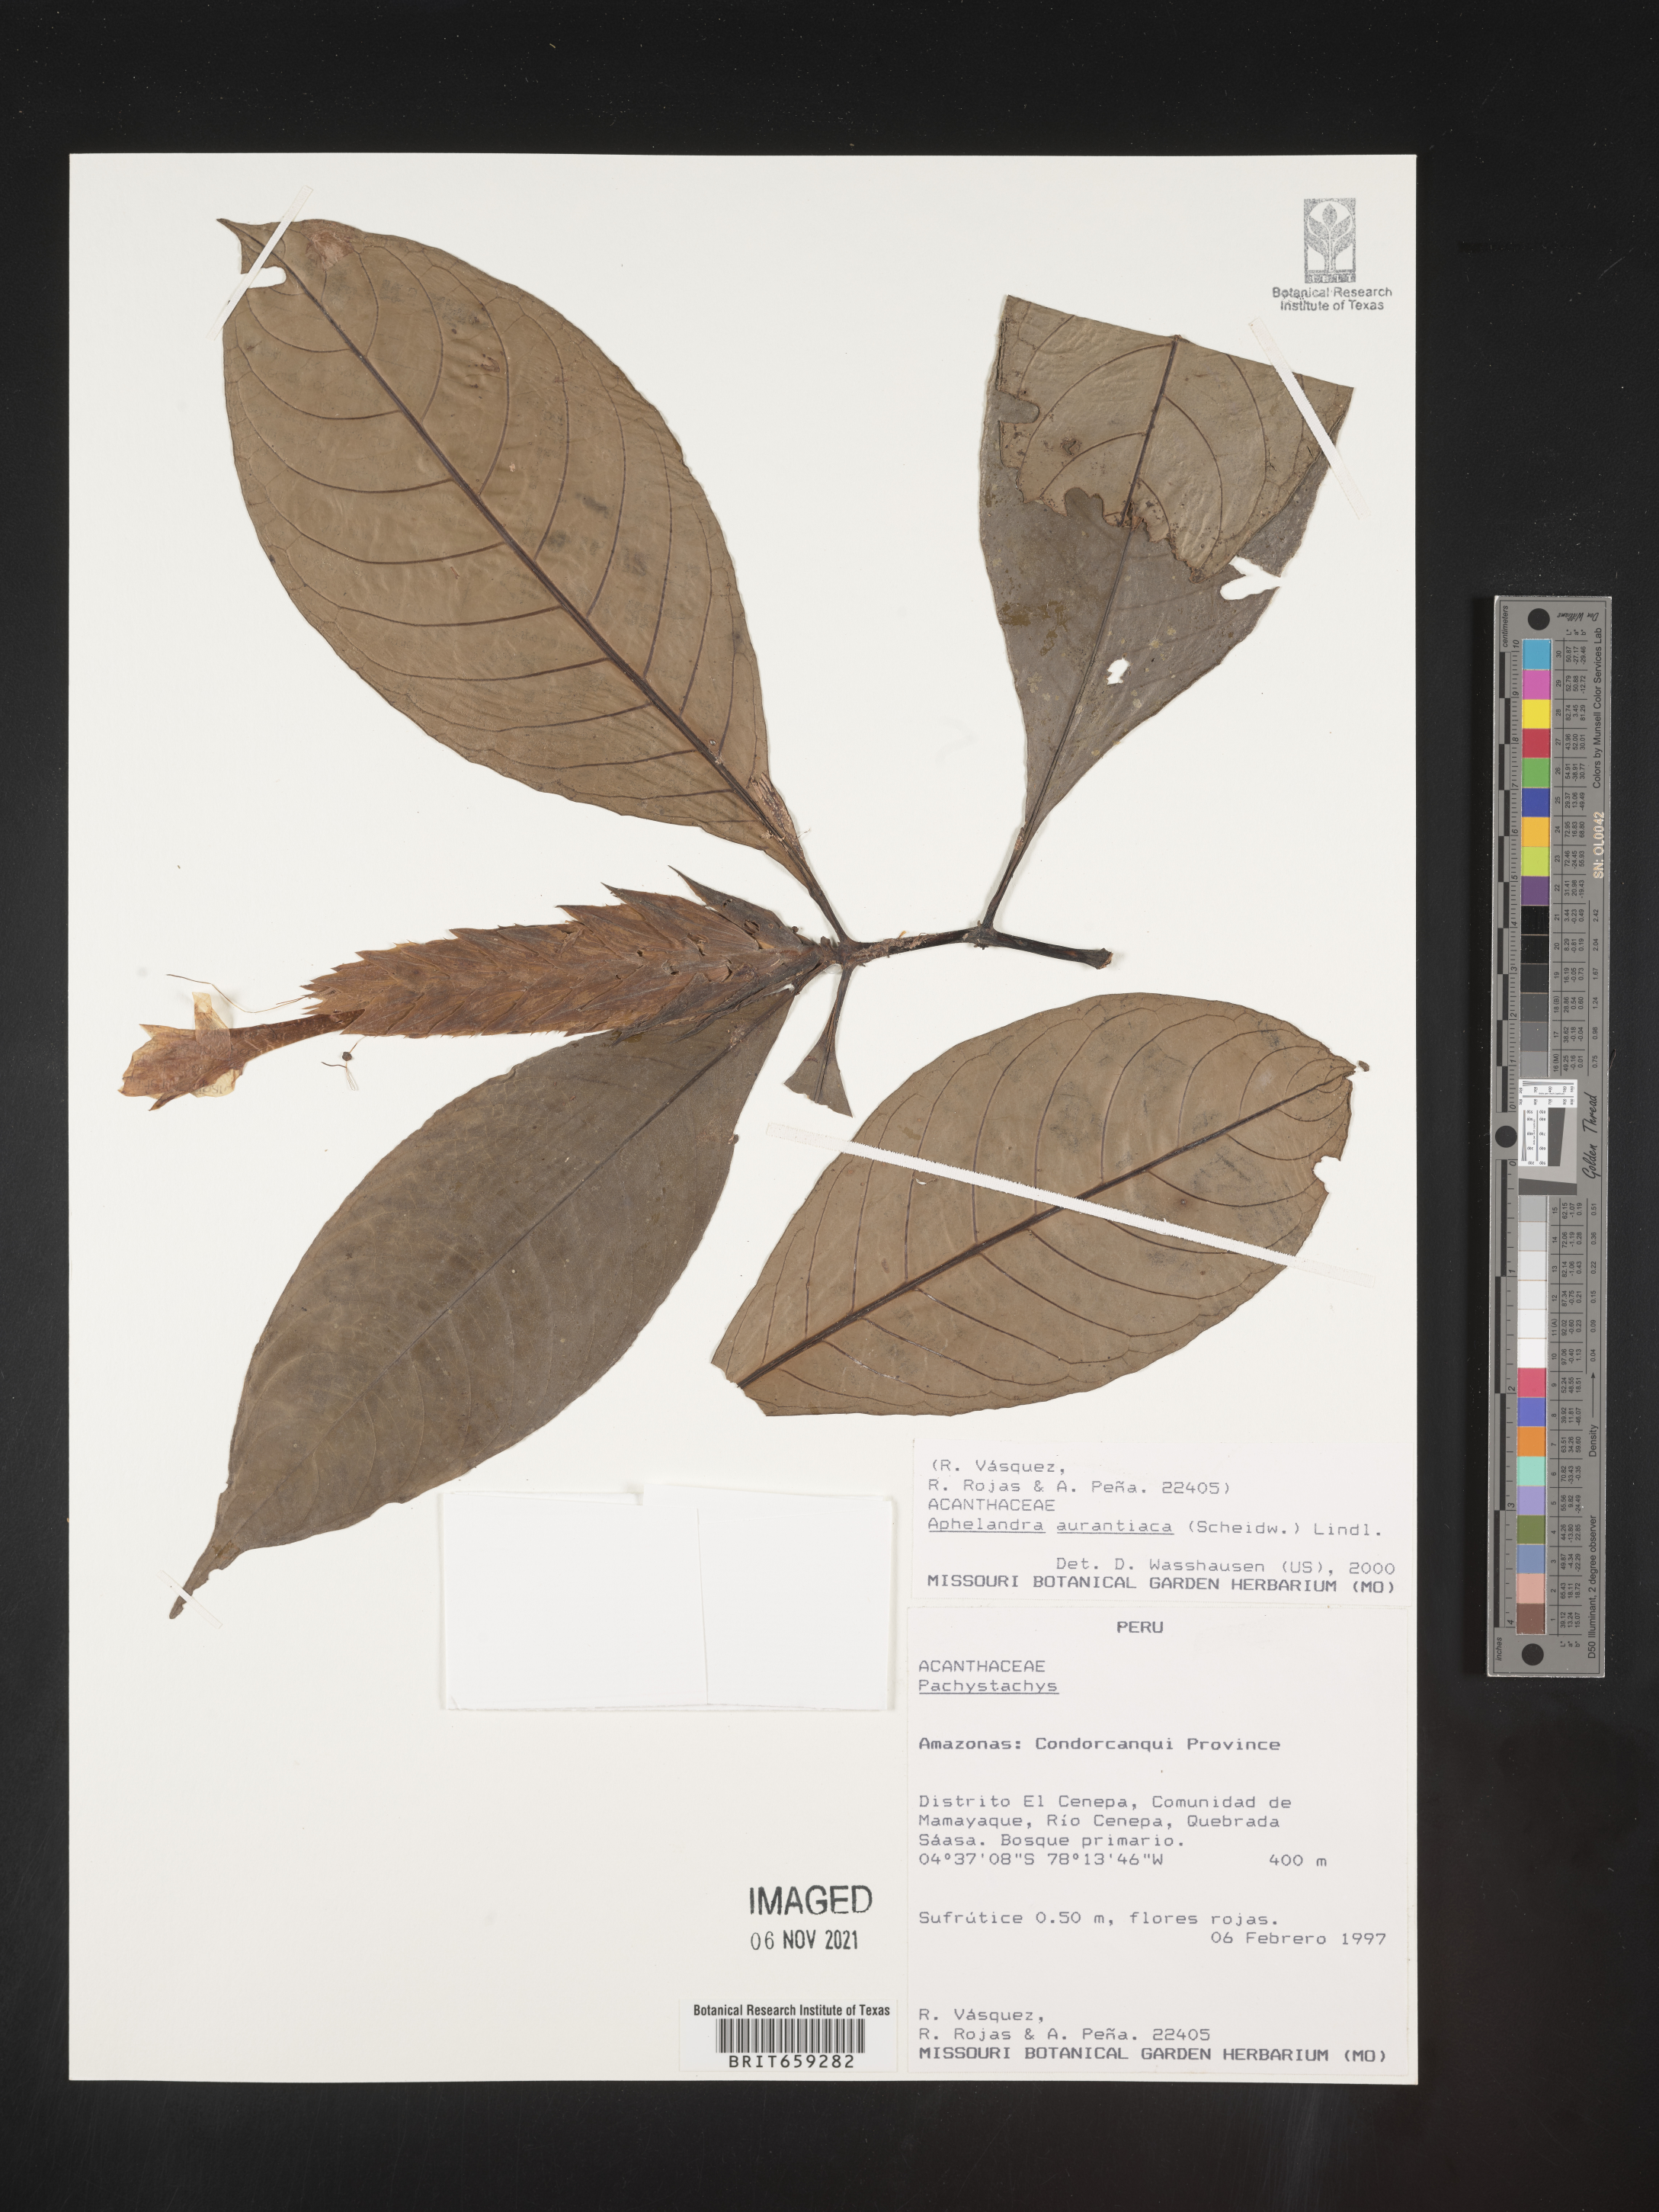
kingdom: Plantae
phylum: Tracheophyta
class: Magnoliopsida
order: Lamiales
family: Acanthaceae
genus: Aphelandra
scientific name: Aphelandra
